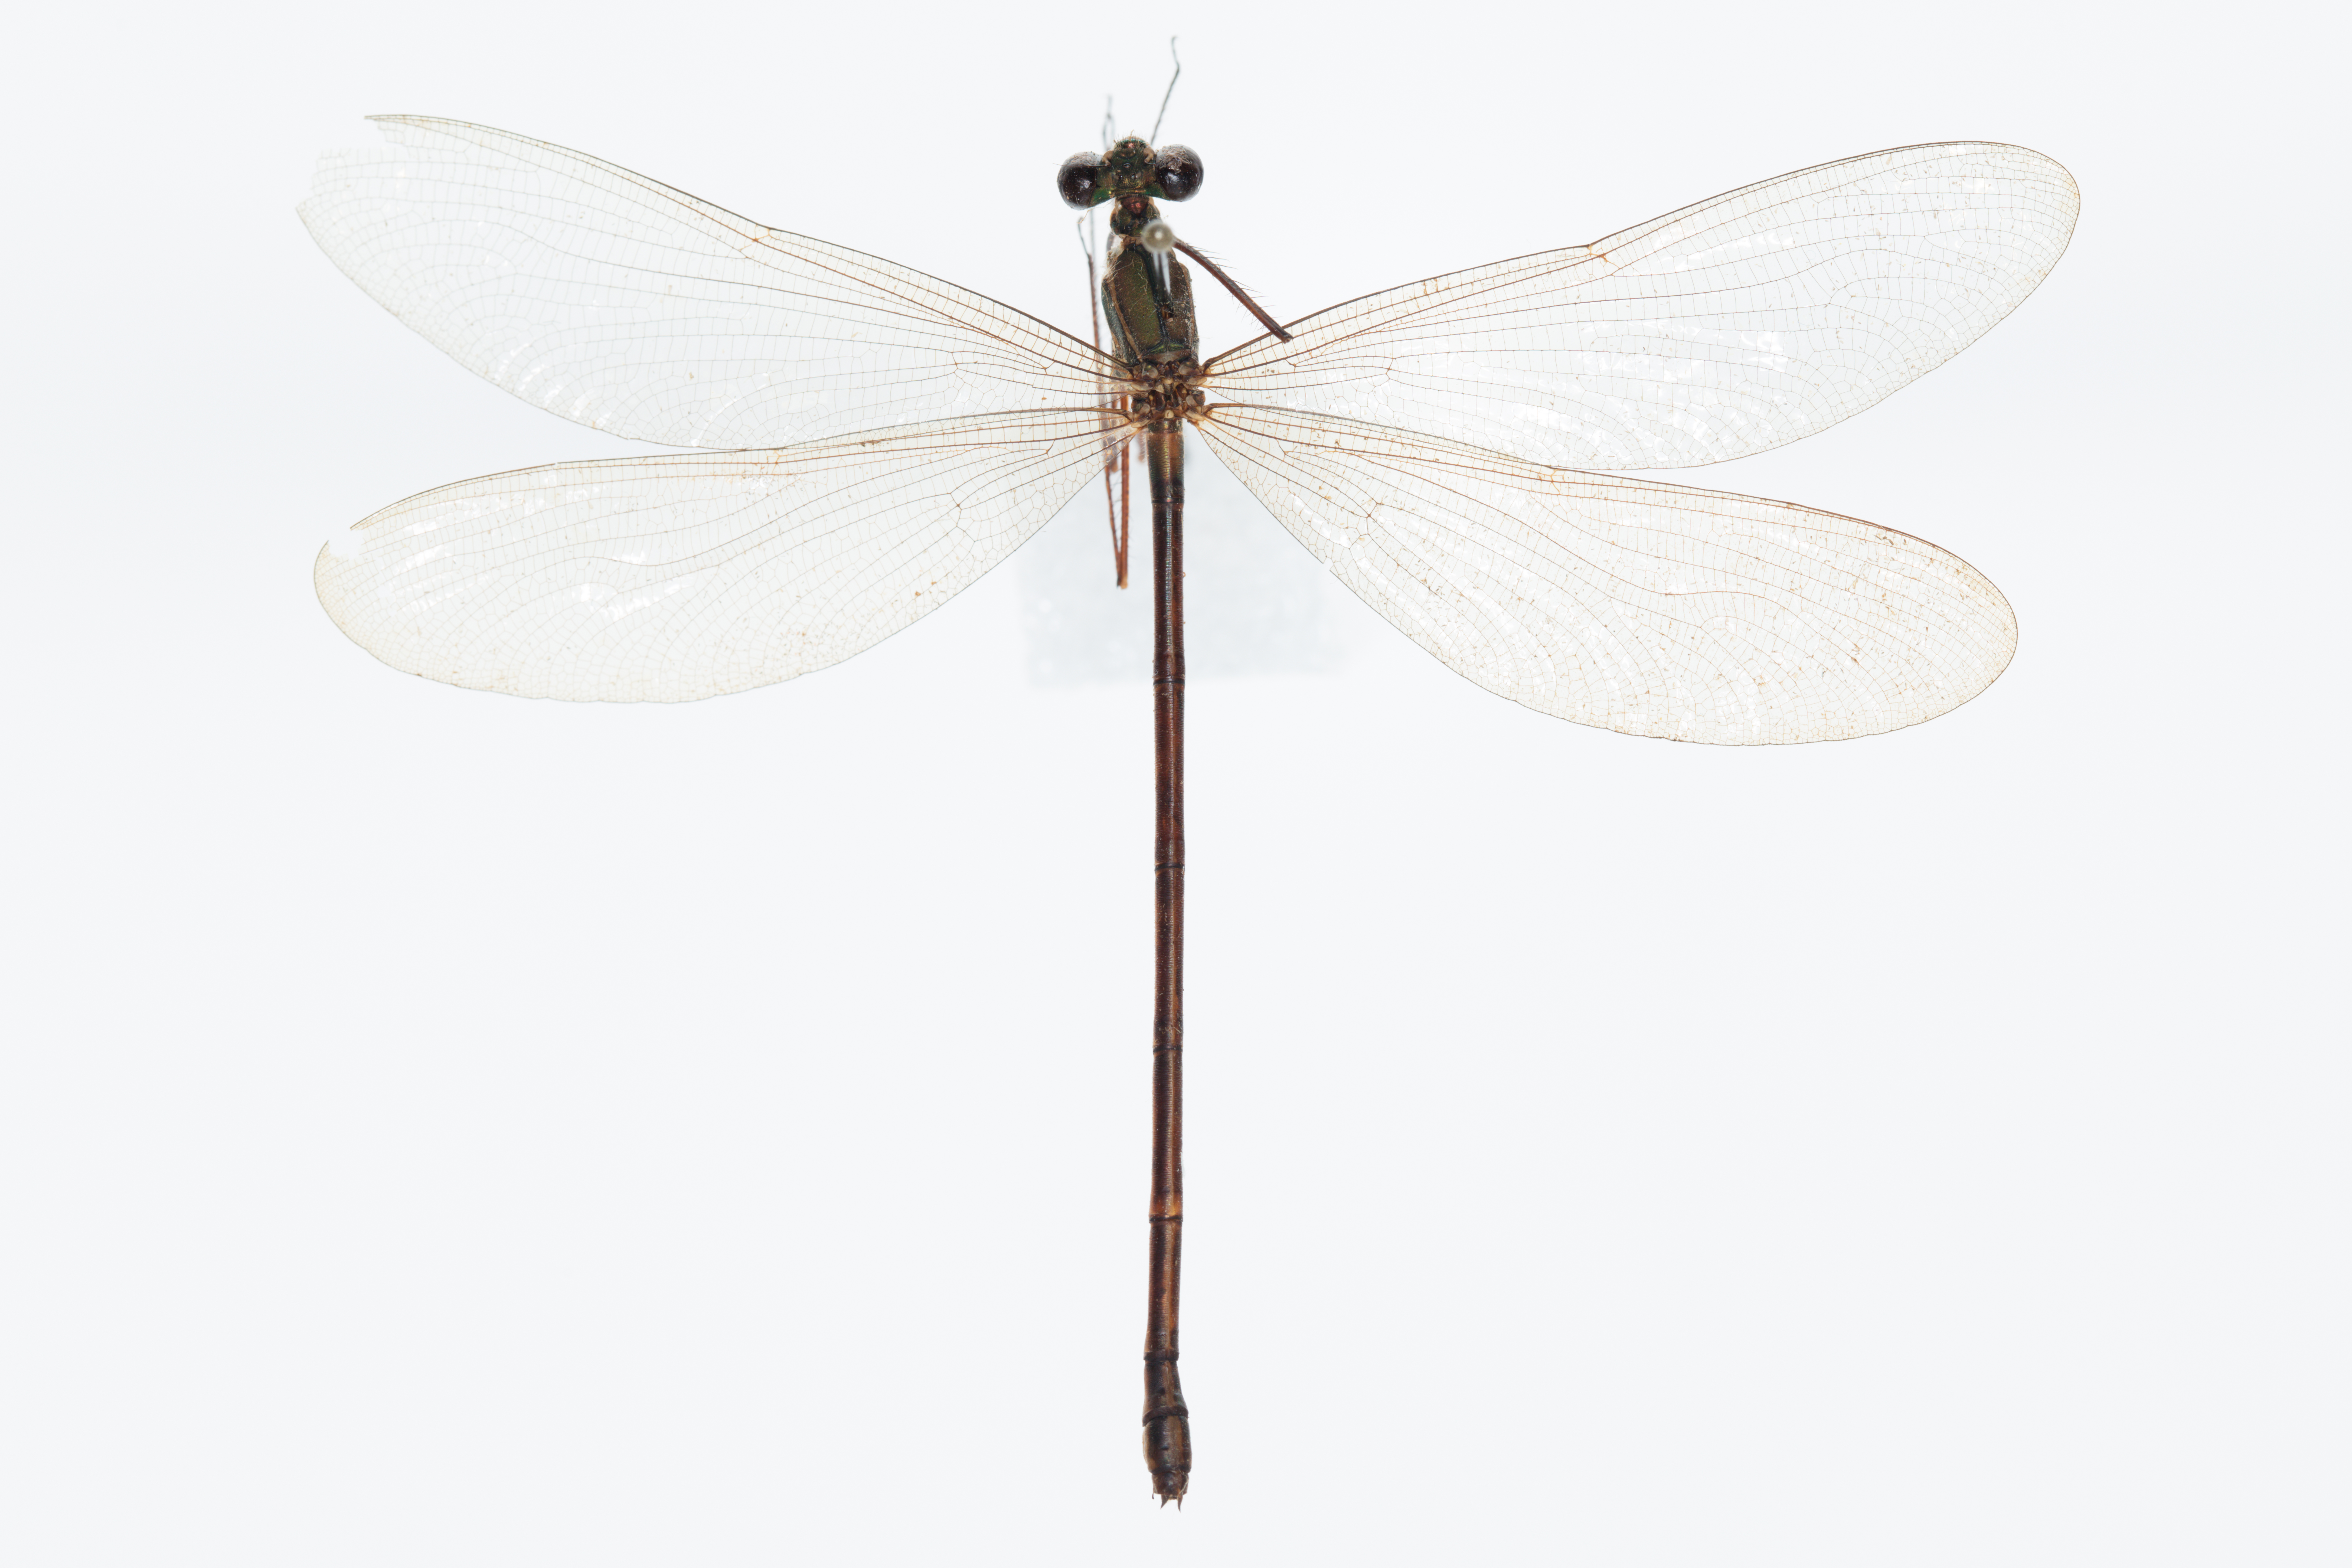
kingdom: Animalia
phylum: Arthropoda
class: Insecta
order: Odonata
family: Calopterygidae
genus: Vestalis
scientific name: Vestalis gracilis
